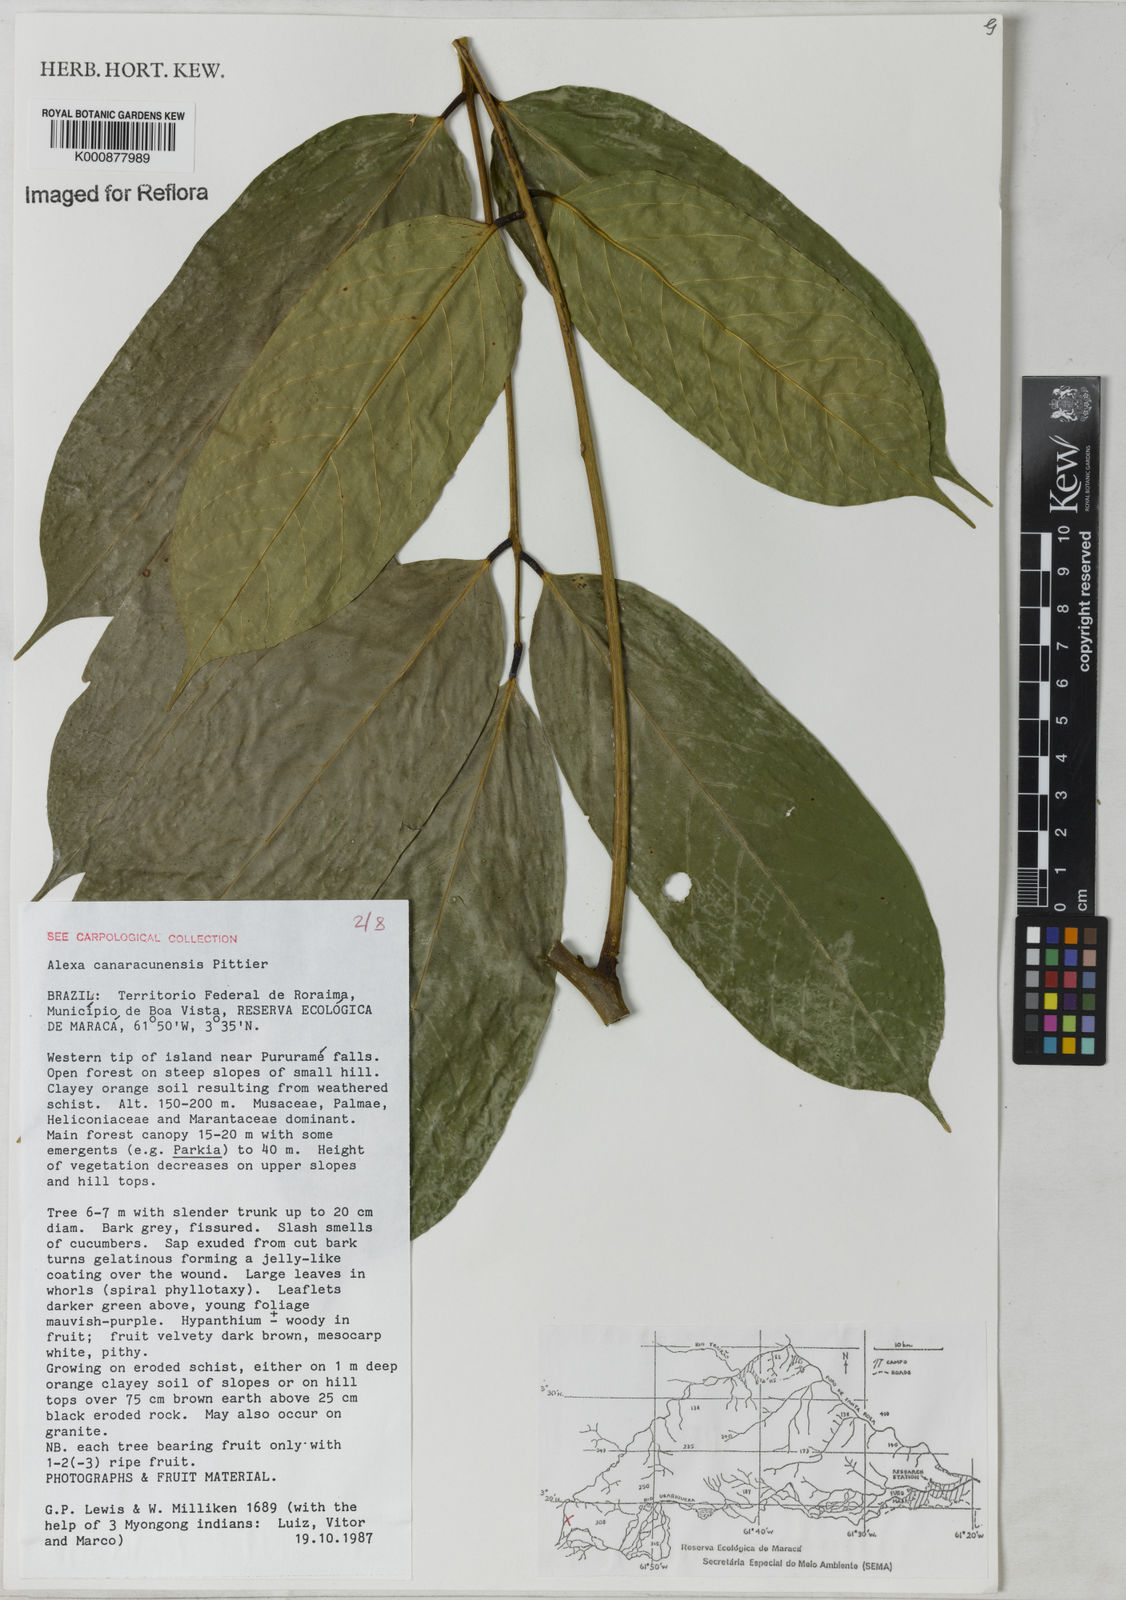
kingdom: Plantae
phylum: Tracheophyta
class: Magnoliopsida
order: Fabales
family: Fabaceae
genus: Alexa
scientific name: Alexa canaracunensis
